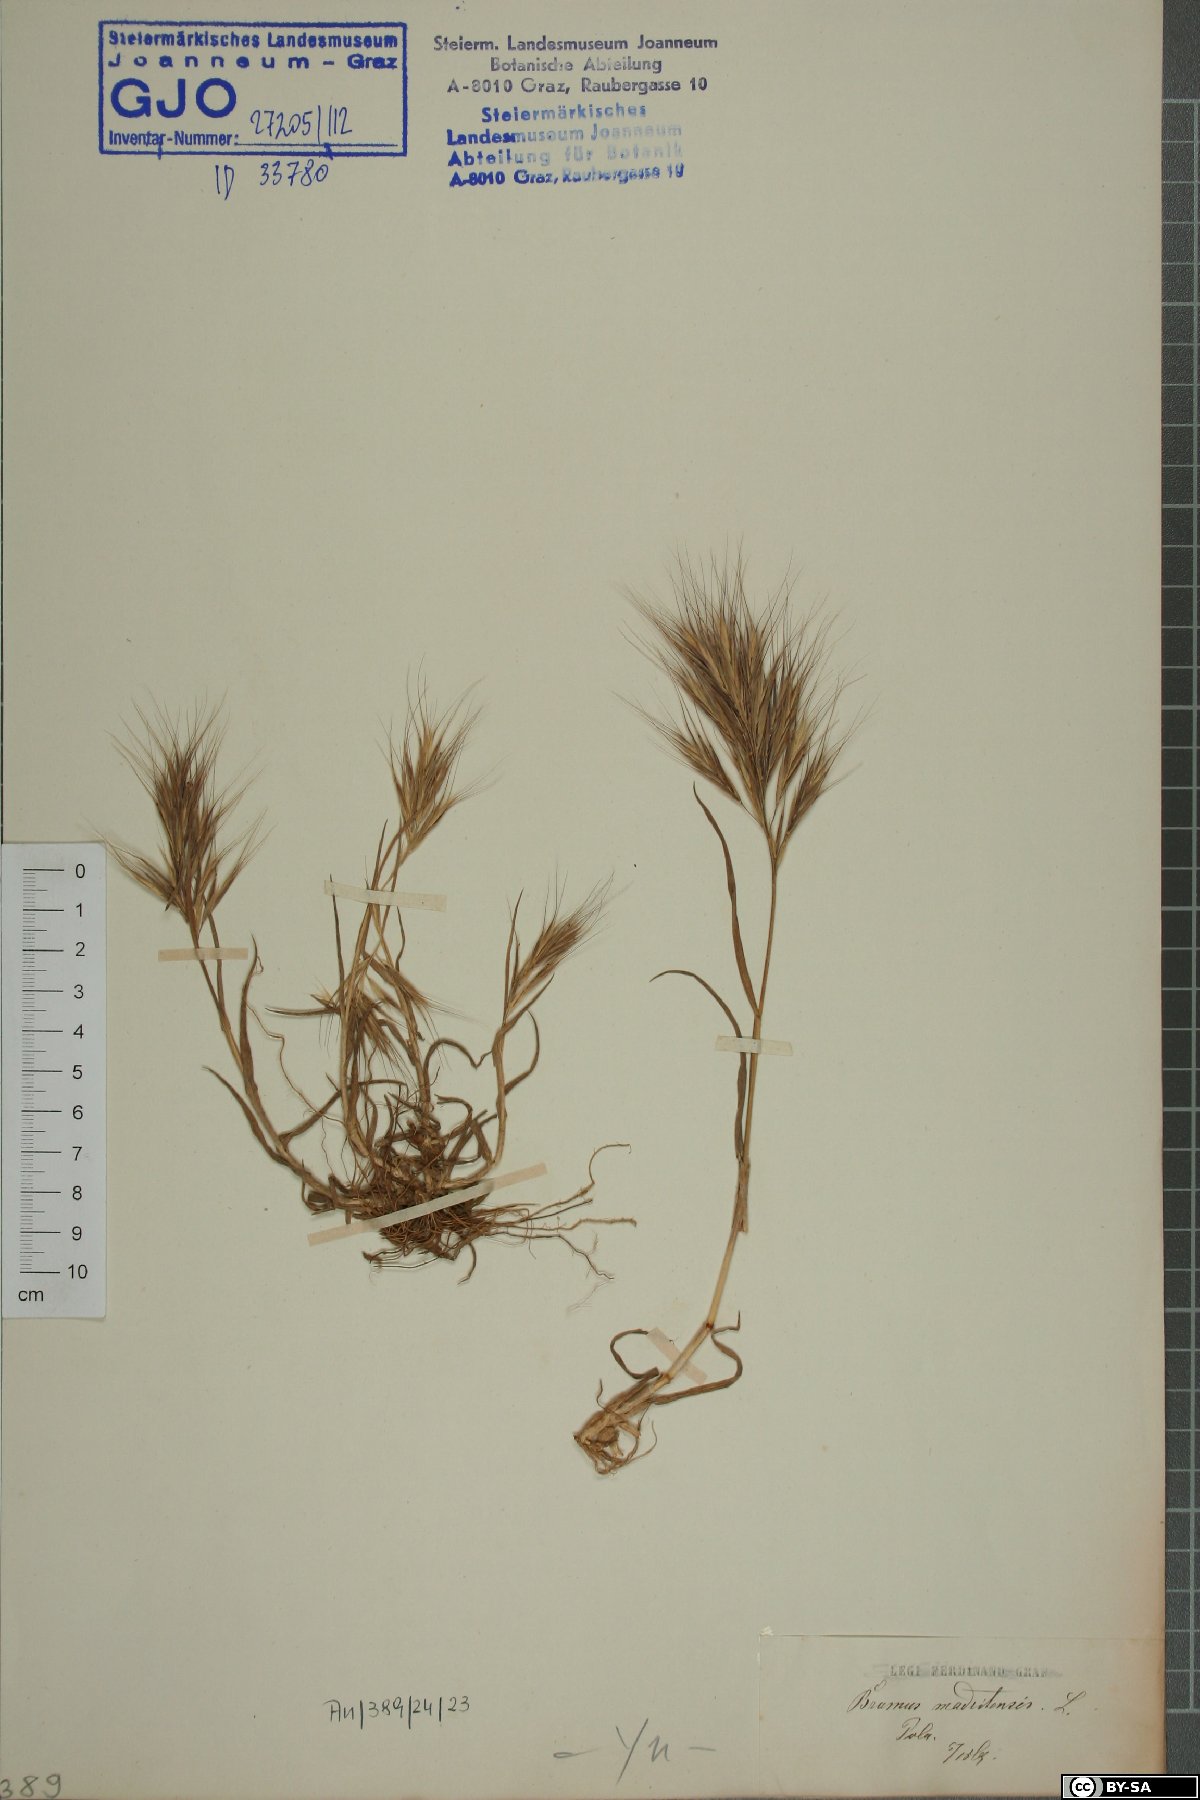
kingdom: Plantae
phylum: Tracheophyta
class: Liliopsida
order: Poales
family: Poaceae
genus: Bromus
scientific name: Bromus madritensis
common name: Compact brome
